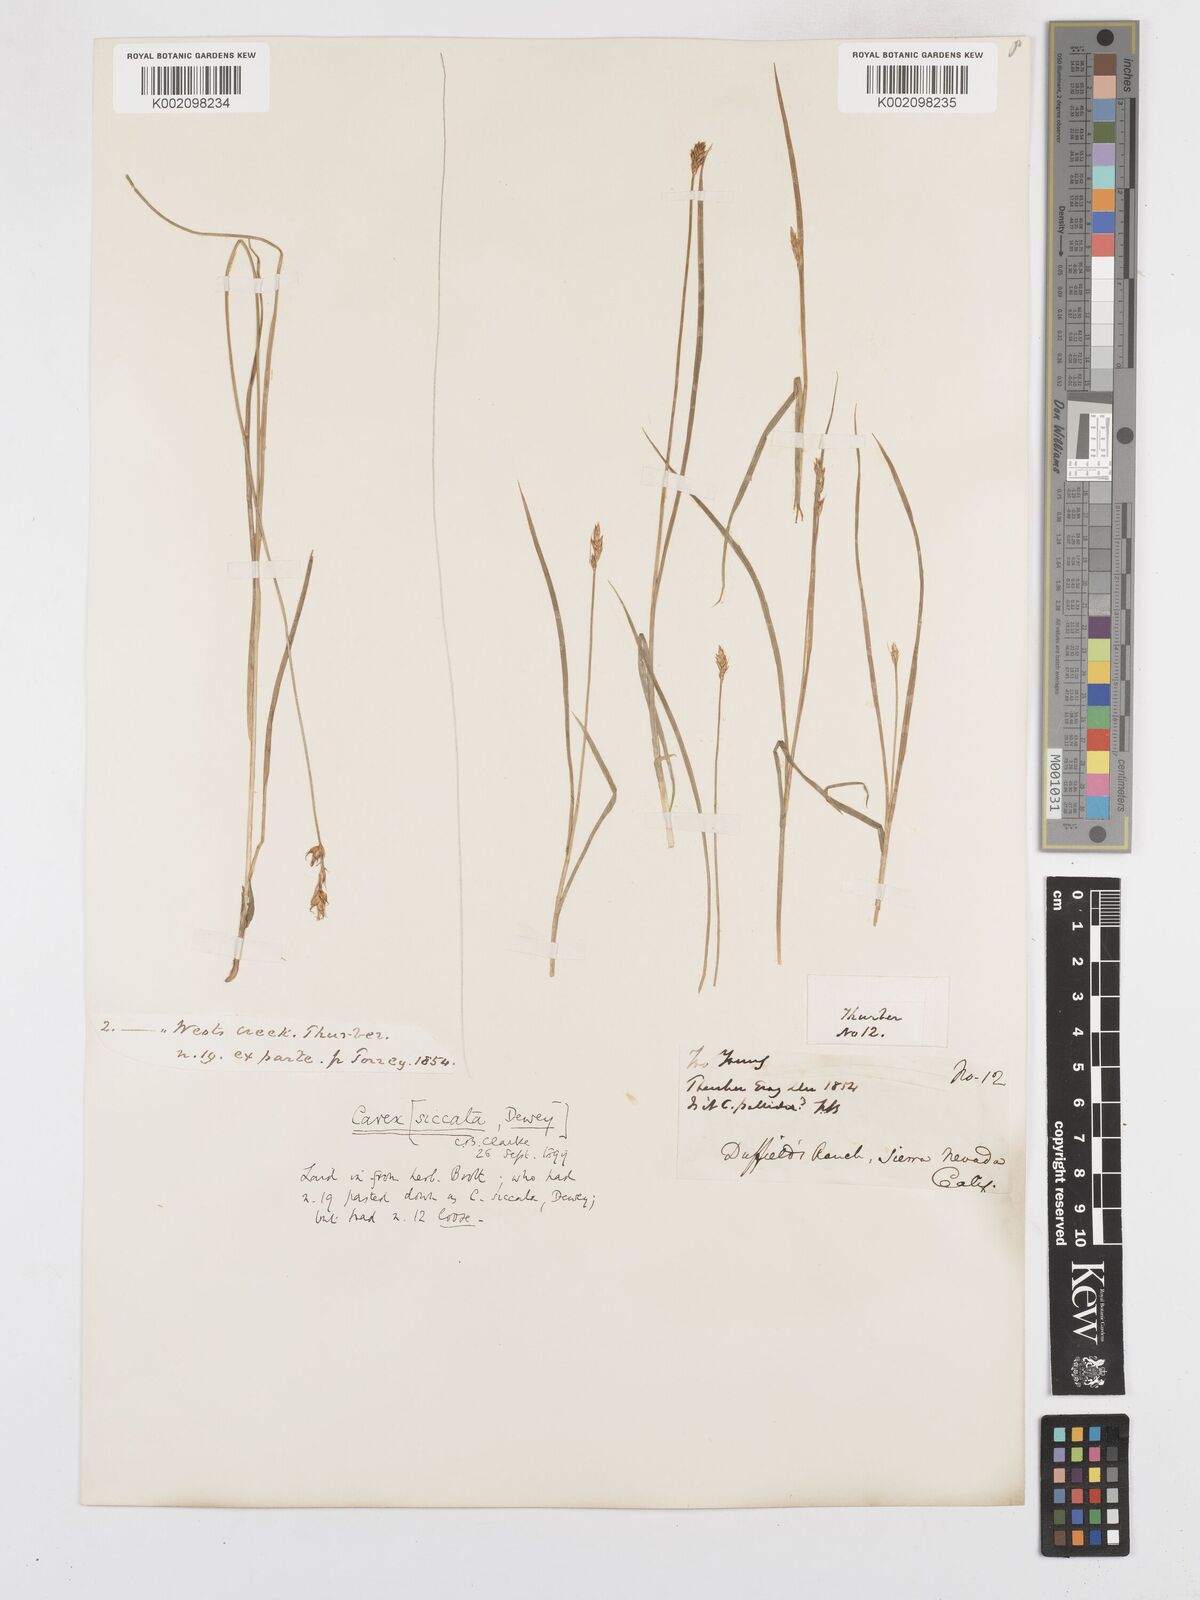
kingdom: Plantae
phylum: Tracheophyta
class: Liliopsida
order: Poales
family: Cyperaceae
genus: Carex
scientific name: Carex foenea
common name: Bronze sedge
